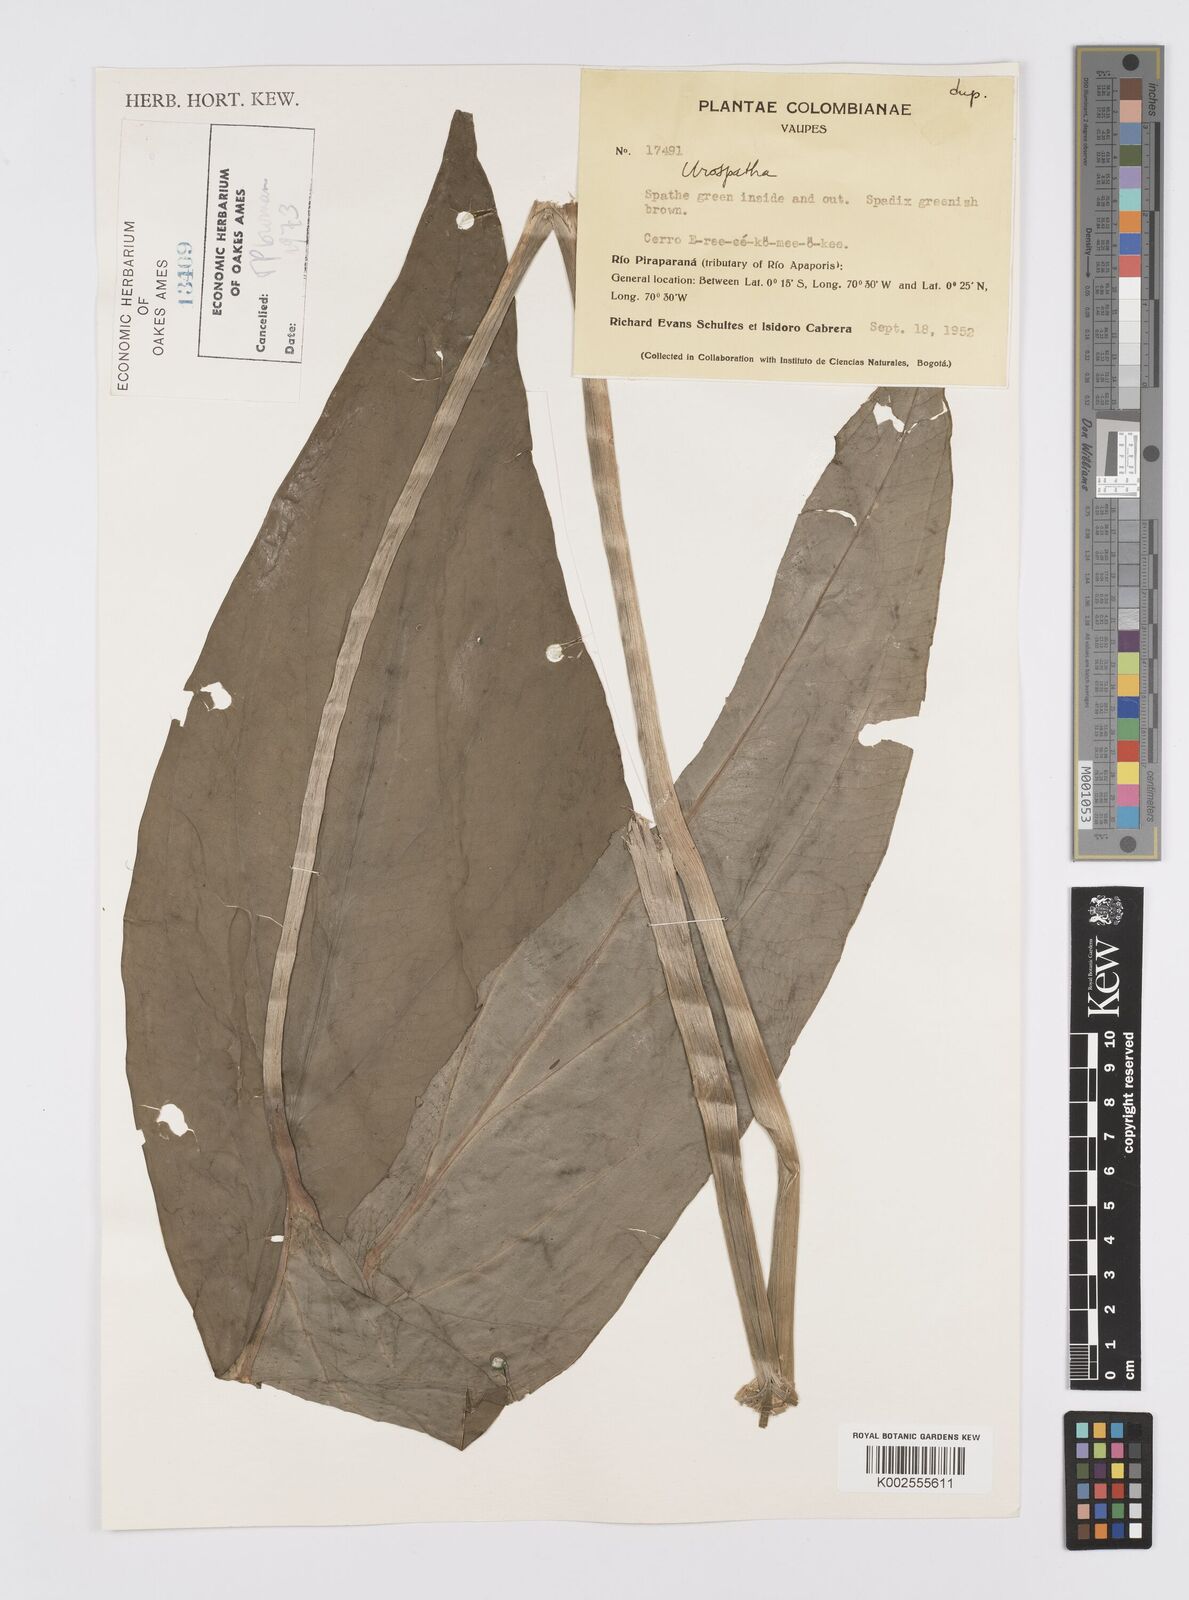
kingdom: Plantae
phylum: Tracheophyta
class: Liliopsida
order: Alismatales
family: Araceae
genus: Urospatha
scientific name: Urospatha
